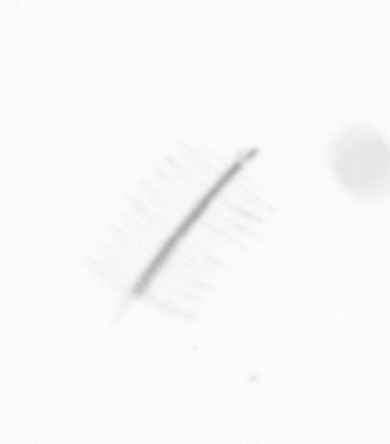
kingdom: Chromista
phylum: Ochrophyta
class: Bacillariophyceae
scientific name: Bacillariophyceae
